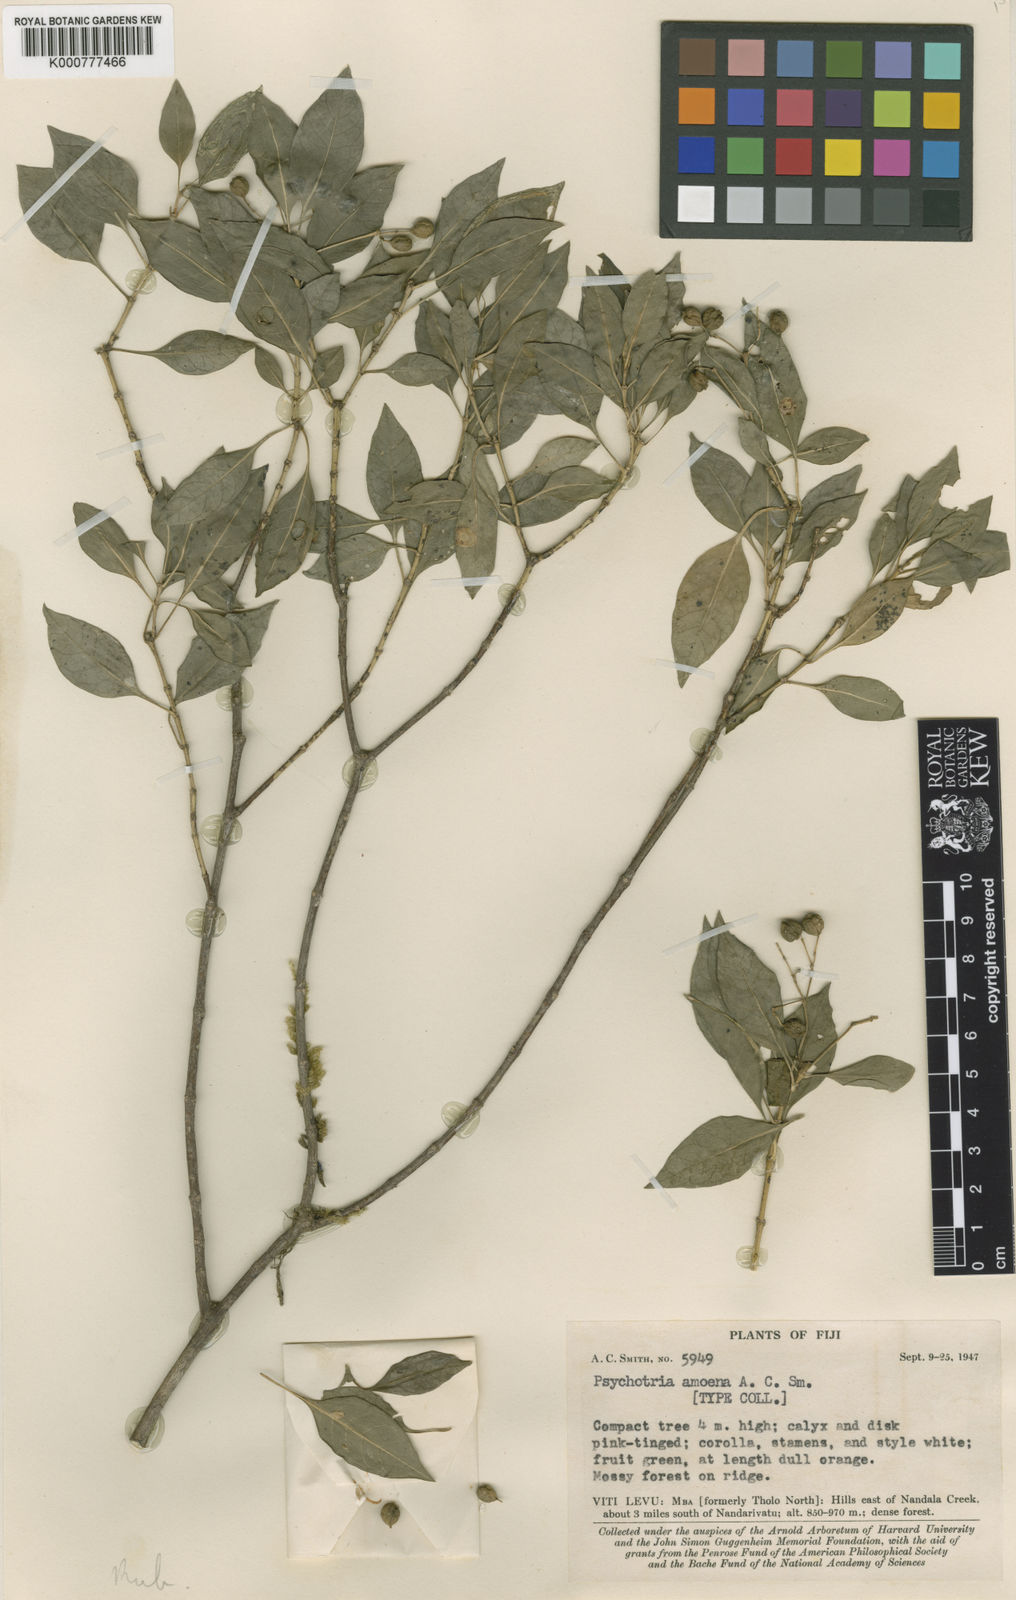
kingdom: Plantae
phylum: Tracheophyta
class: Magnoliopsida
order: Gentianales
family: Rubiaceae
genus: Eumachia
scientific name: Eumachia amoena
